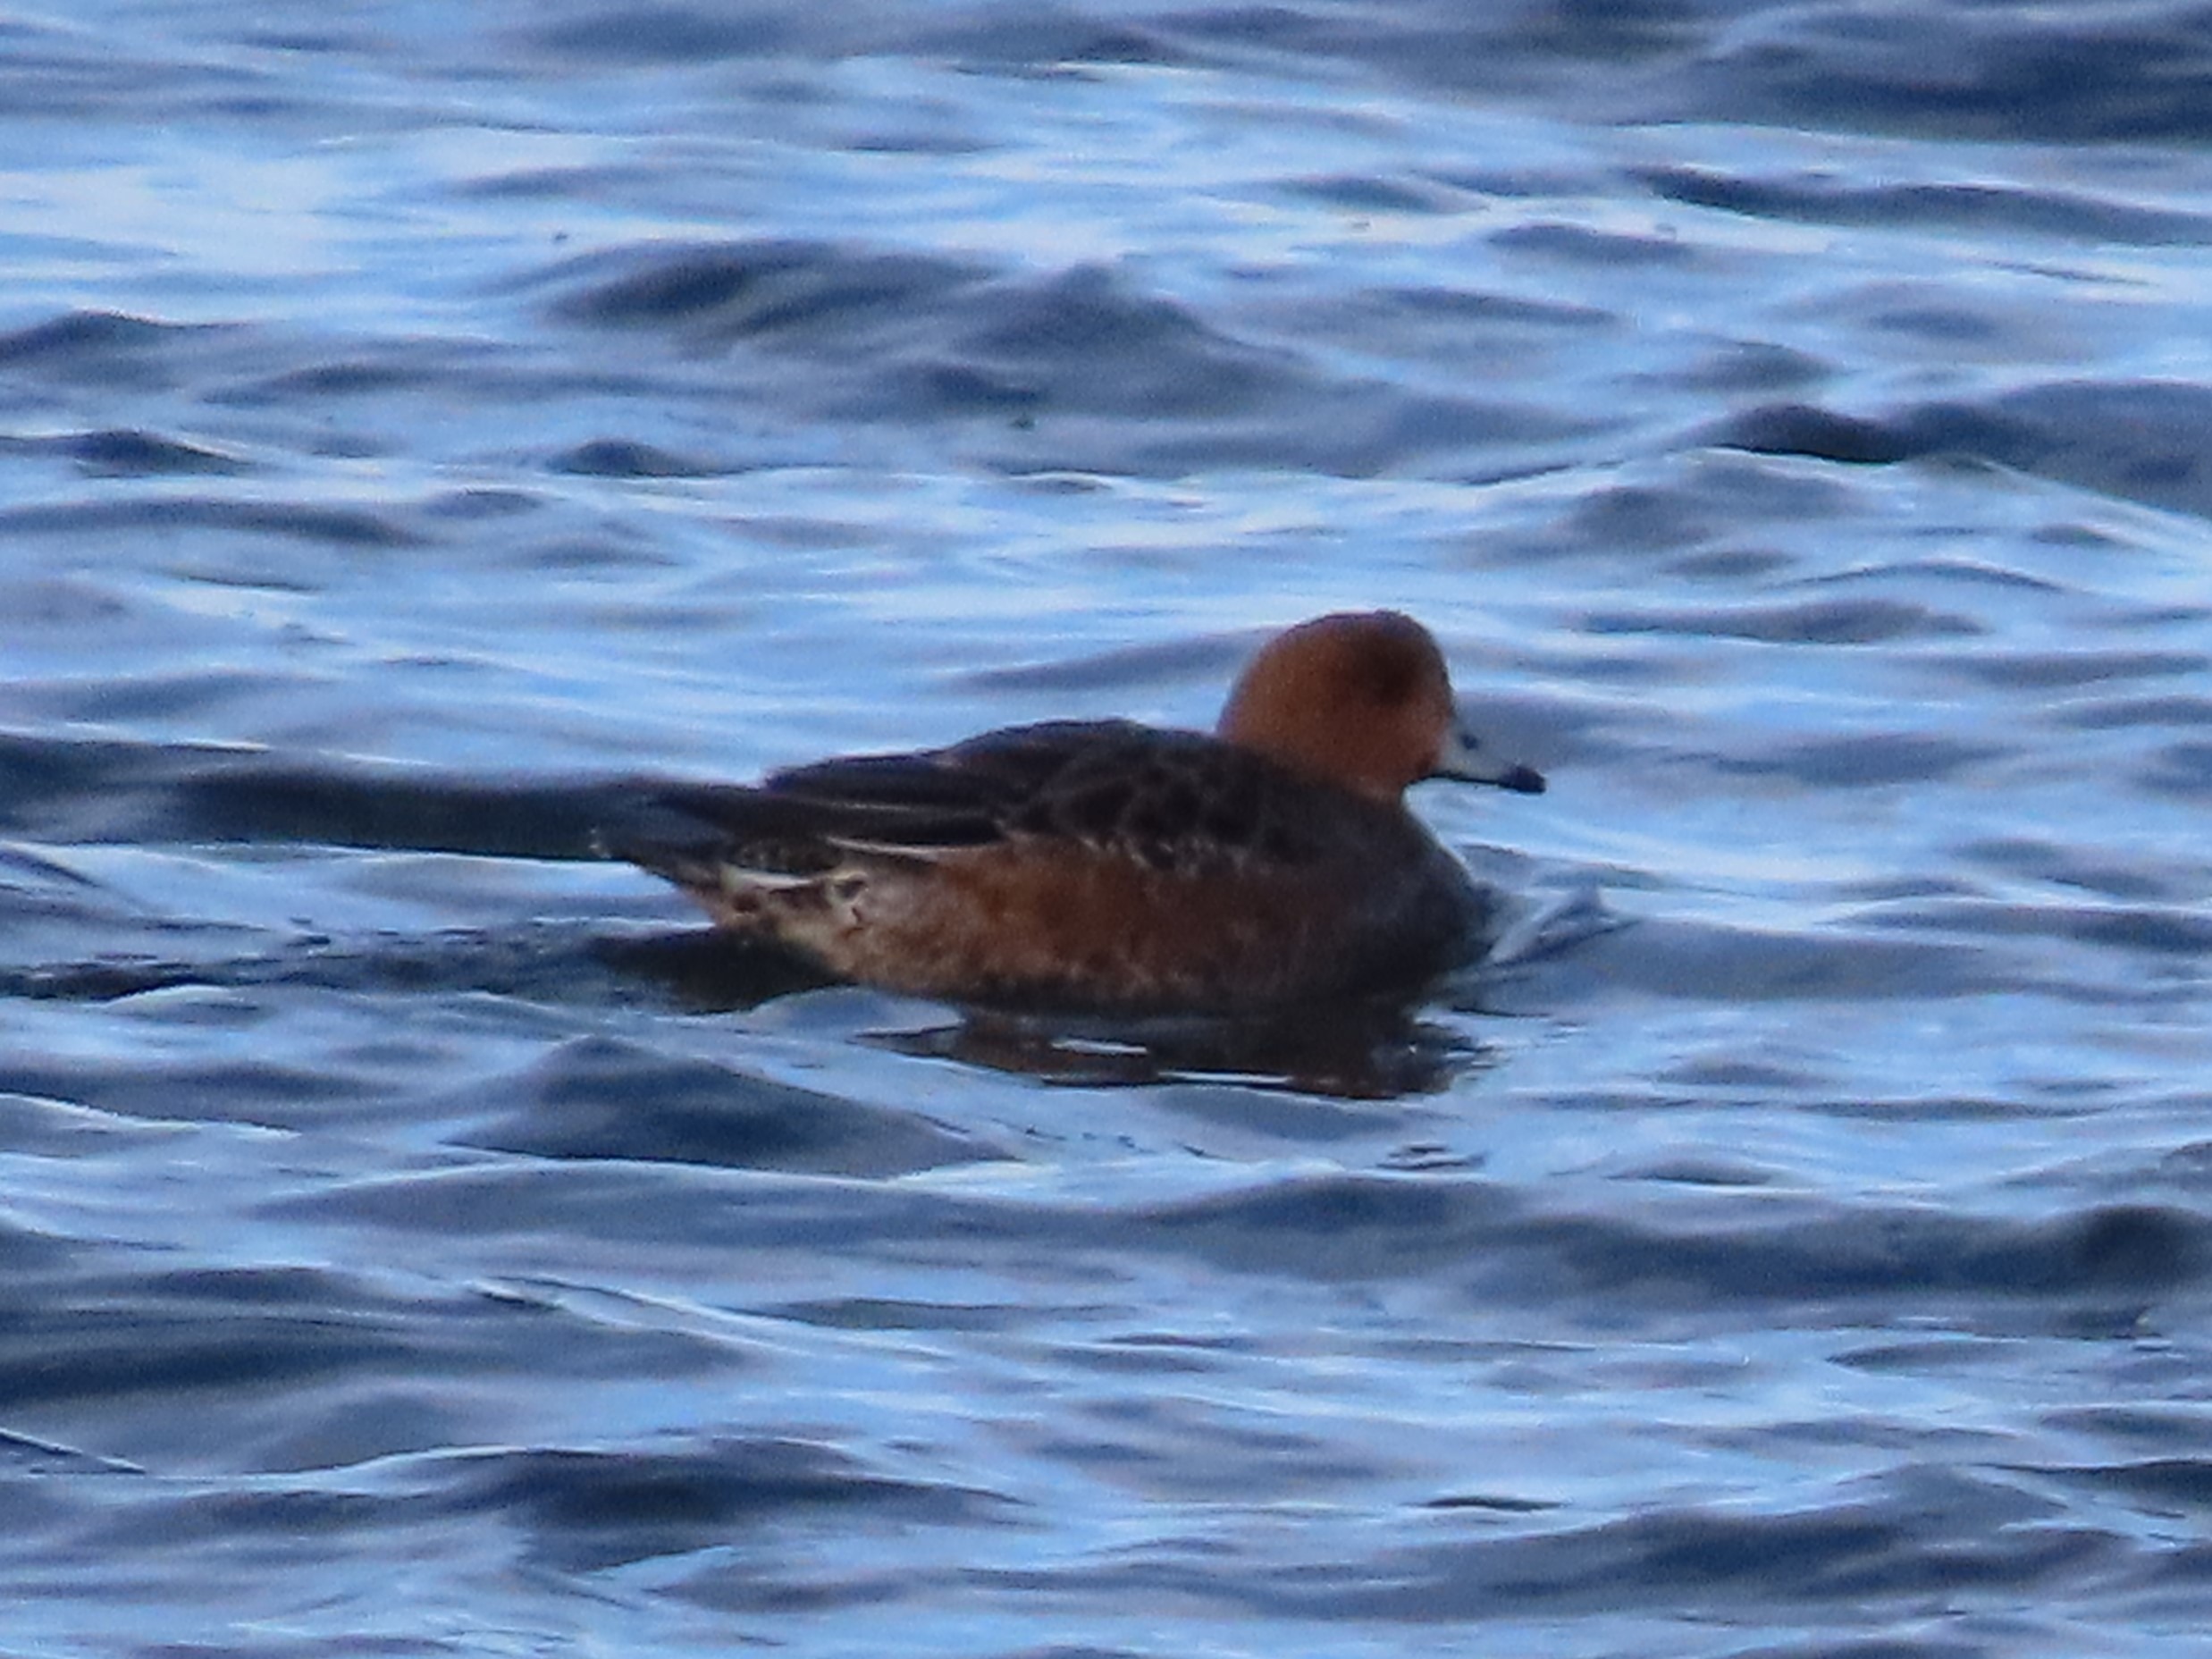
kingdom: Animalia
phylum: Chordata
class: Aves
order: Anseriformes
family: Anatidae
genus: Mareca
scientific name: Mareca penelope
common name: Pibeand
